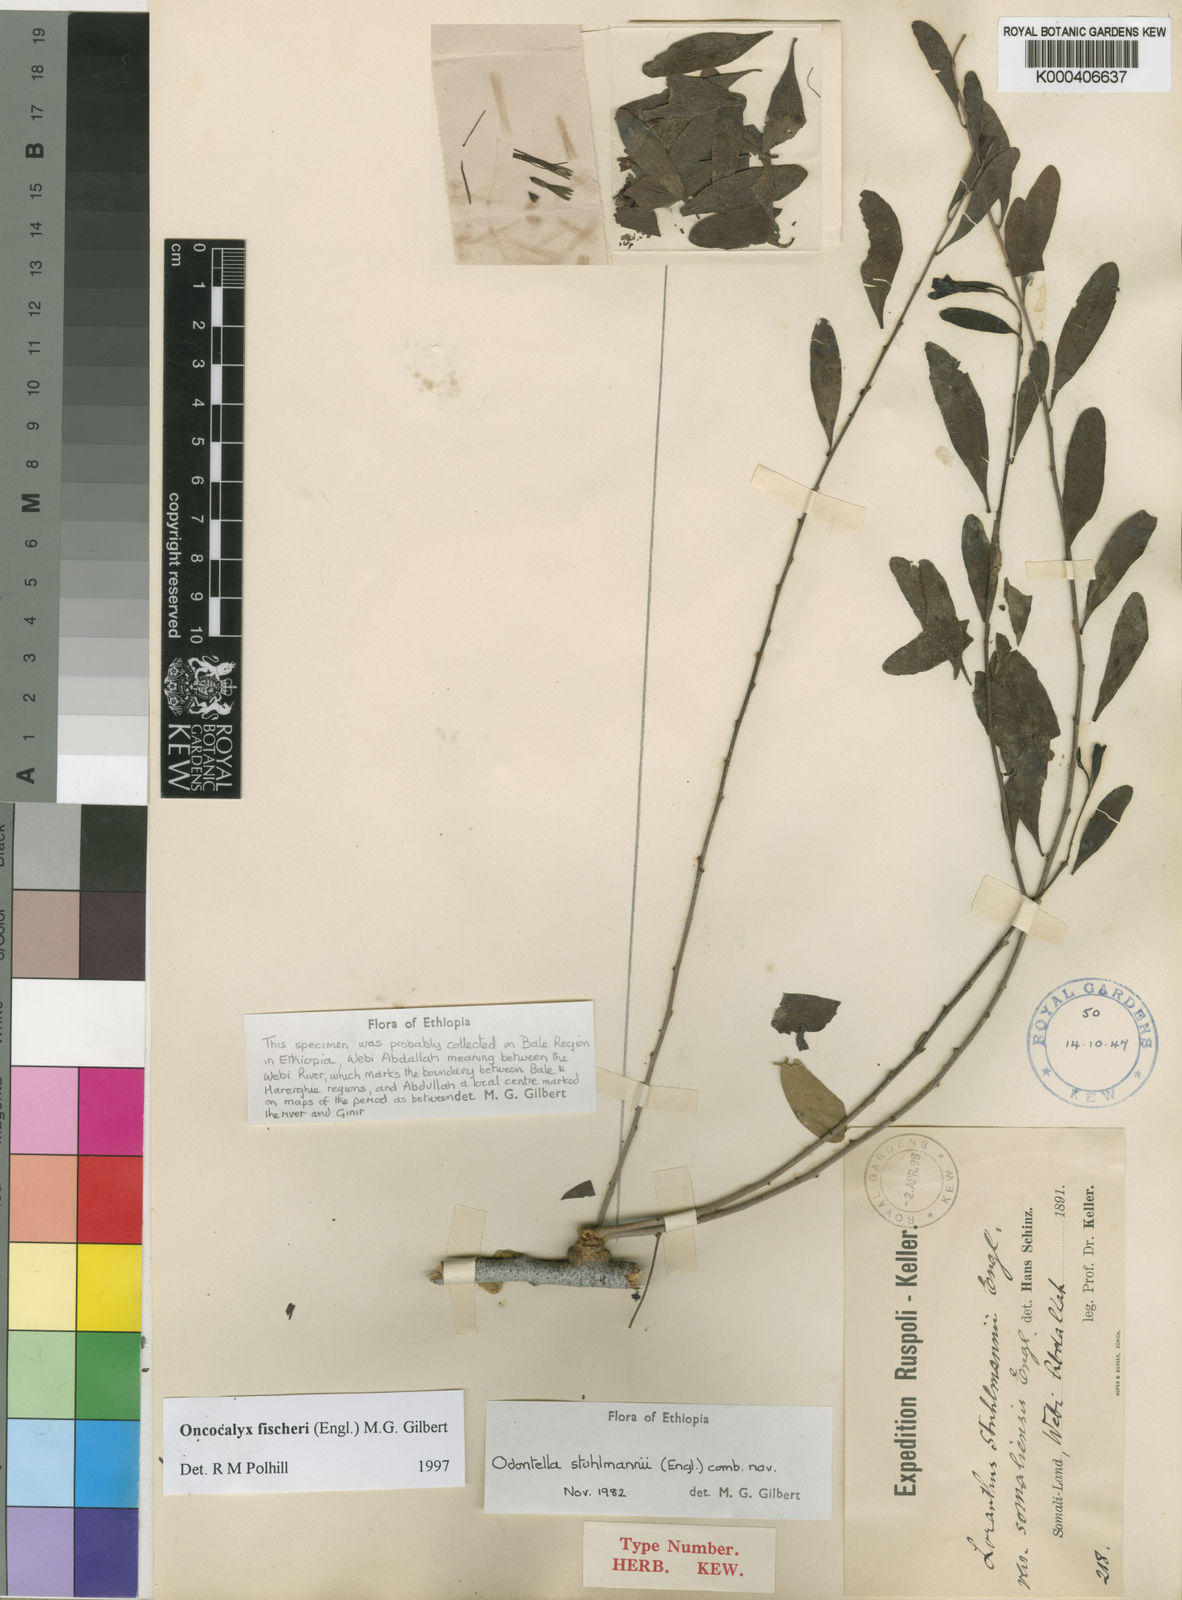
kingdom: Plantae
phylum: Tracheophyta
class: Magnoliopsida
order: Santalales
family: Loranthaceae
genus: Oncocalyx
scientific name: Oncocalyx fischeri
